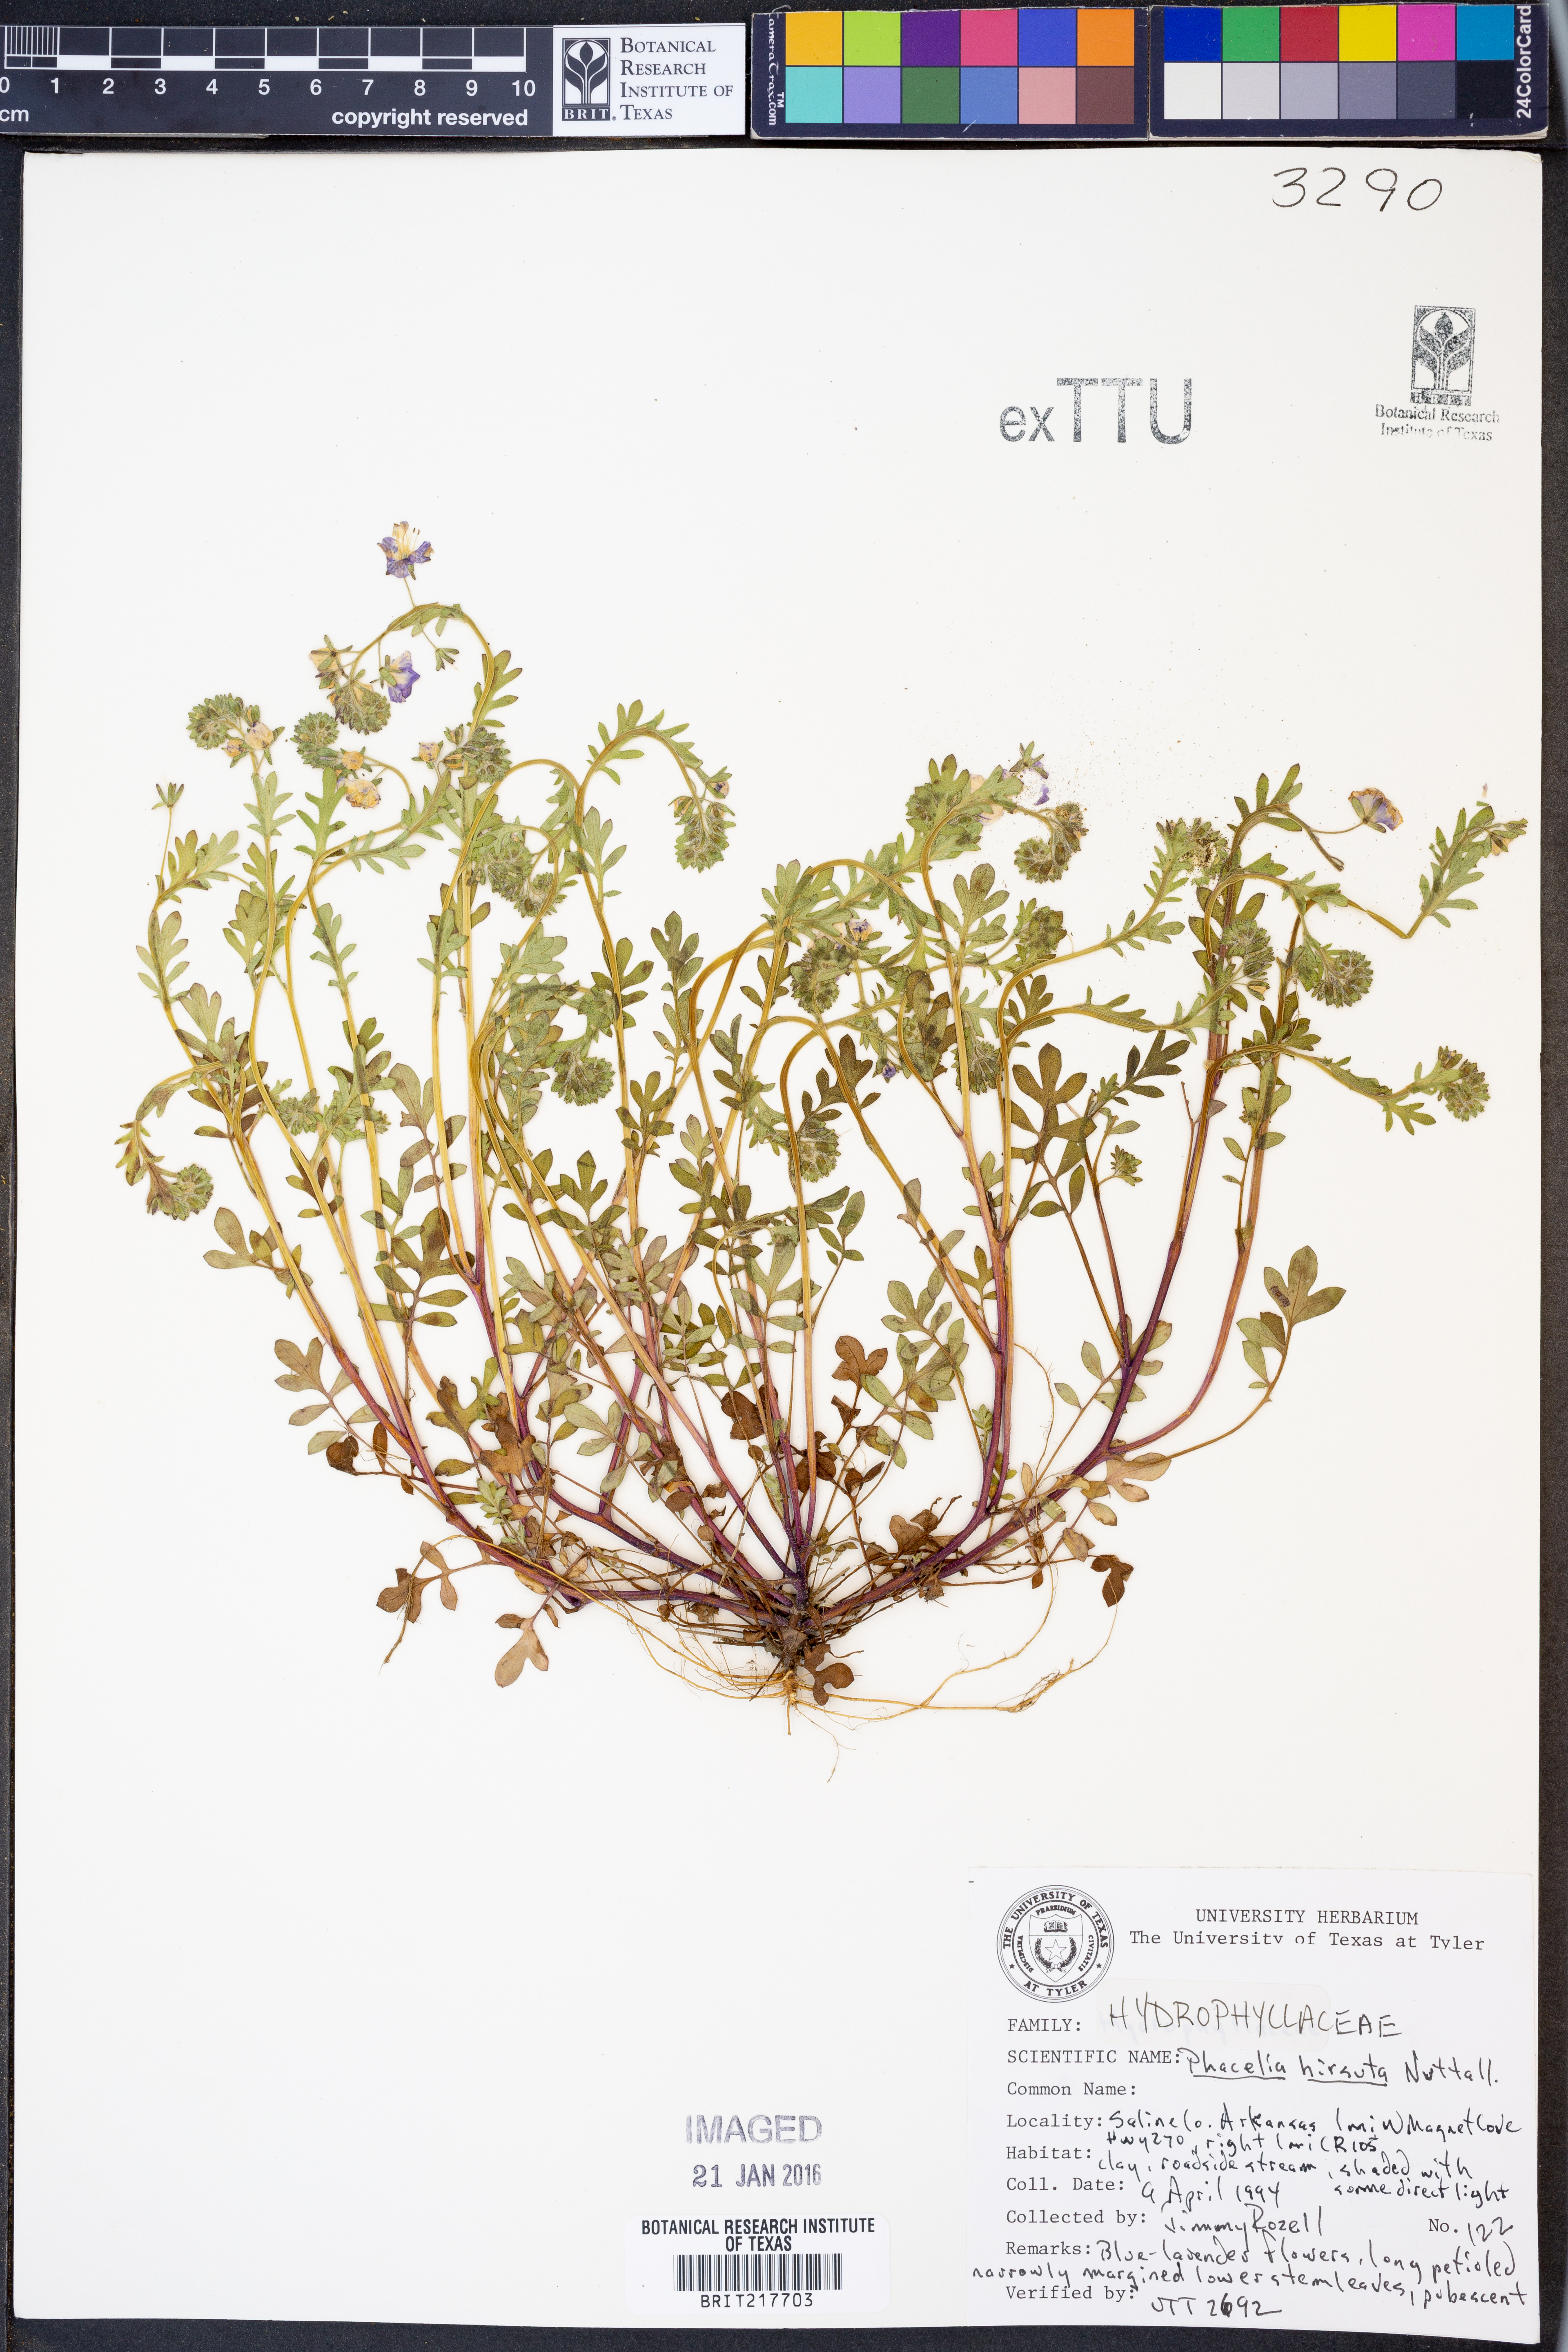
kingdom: Plantae
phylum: Tracheophyta
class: Magnoliopsida
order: Boraginales
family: Hydrophyllaceae
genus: Phacelia
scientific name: Phacelia hirsuta
